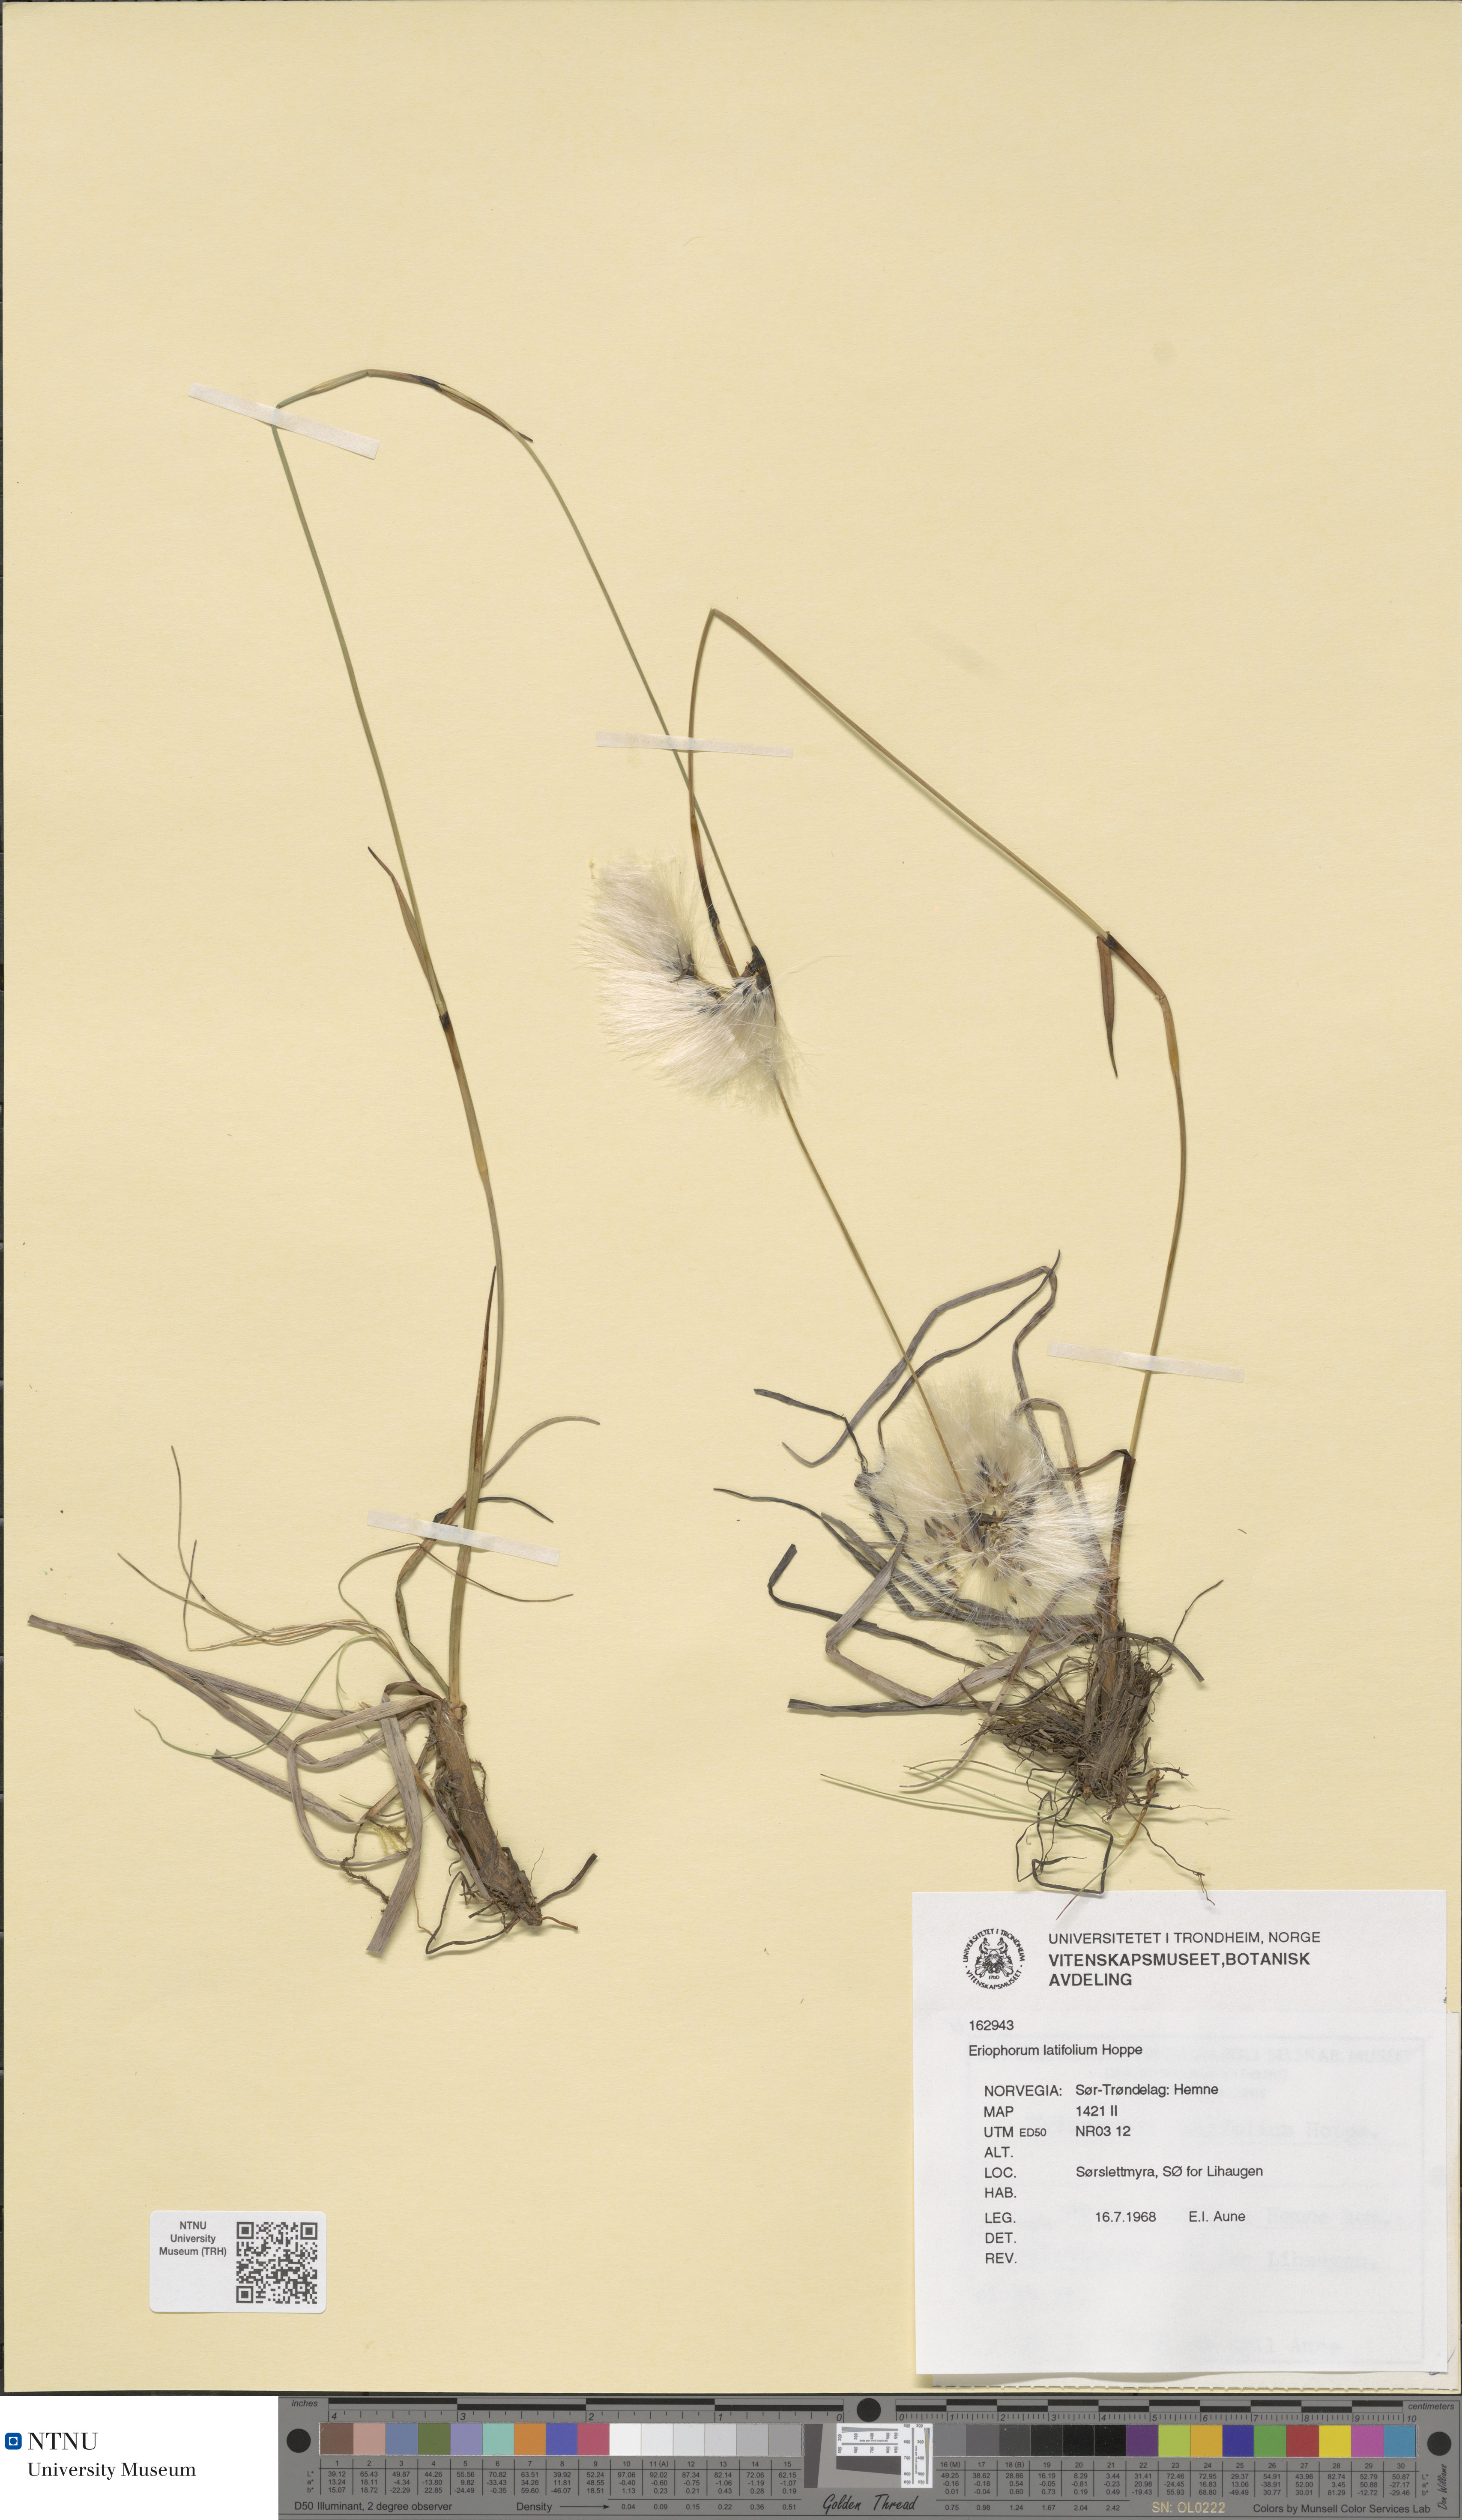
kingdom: Plantae
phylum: Tracheophyta
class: Liliopsida
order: Poales
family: Cyperaceae
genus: Eriophorum
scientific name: Eriophorum latifolium
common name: Broad-leaved cottongrass
